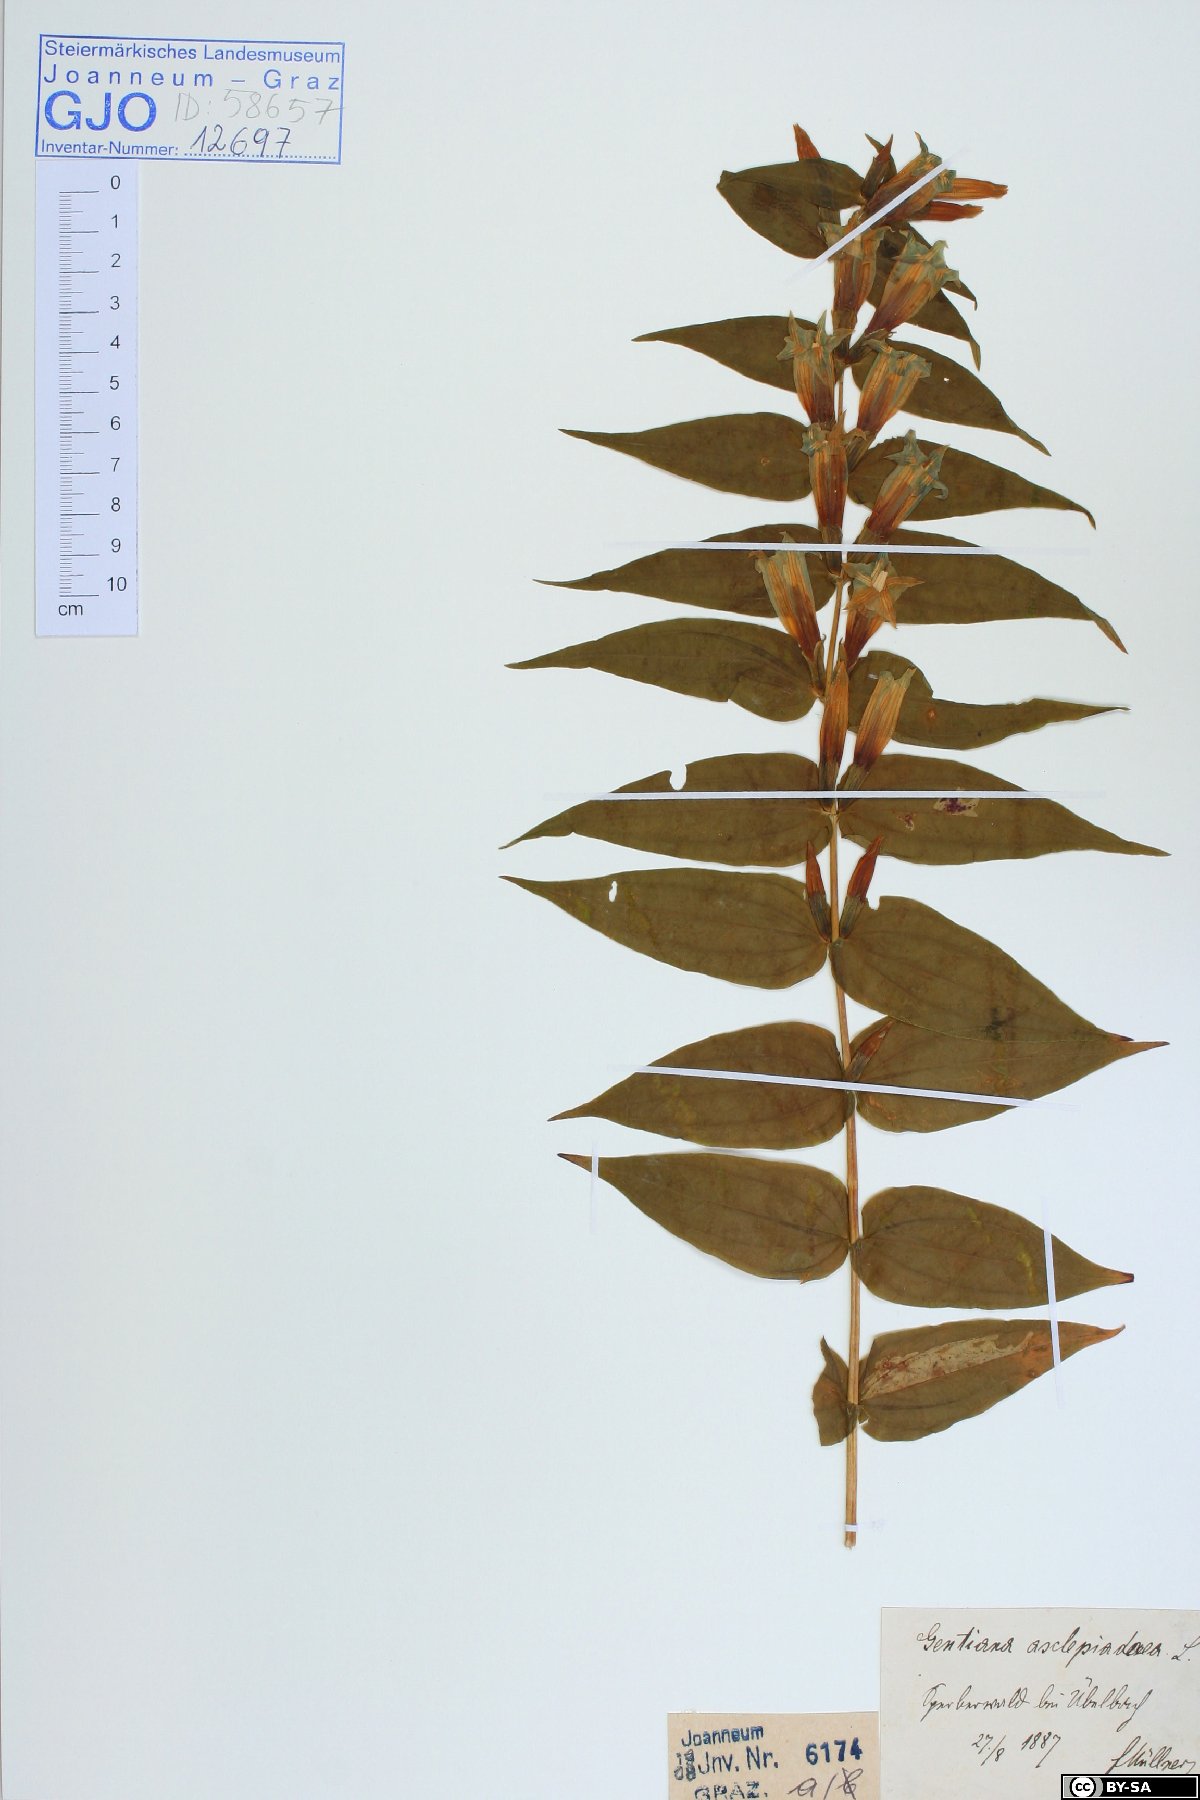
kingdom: Plantae
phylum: Tracheophyta
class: Magnoliopsida
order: Gentianales
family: Gentianaceae
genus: Gentiana
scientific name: Gentiana asclepiadea
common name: Willow gentian
